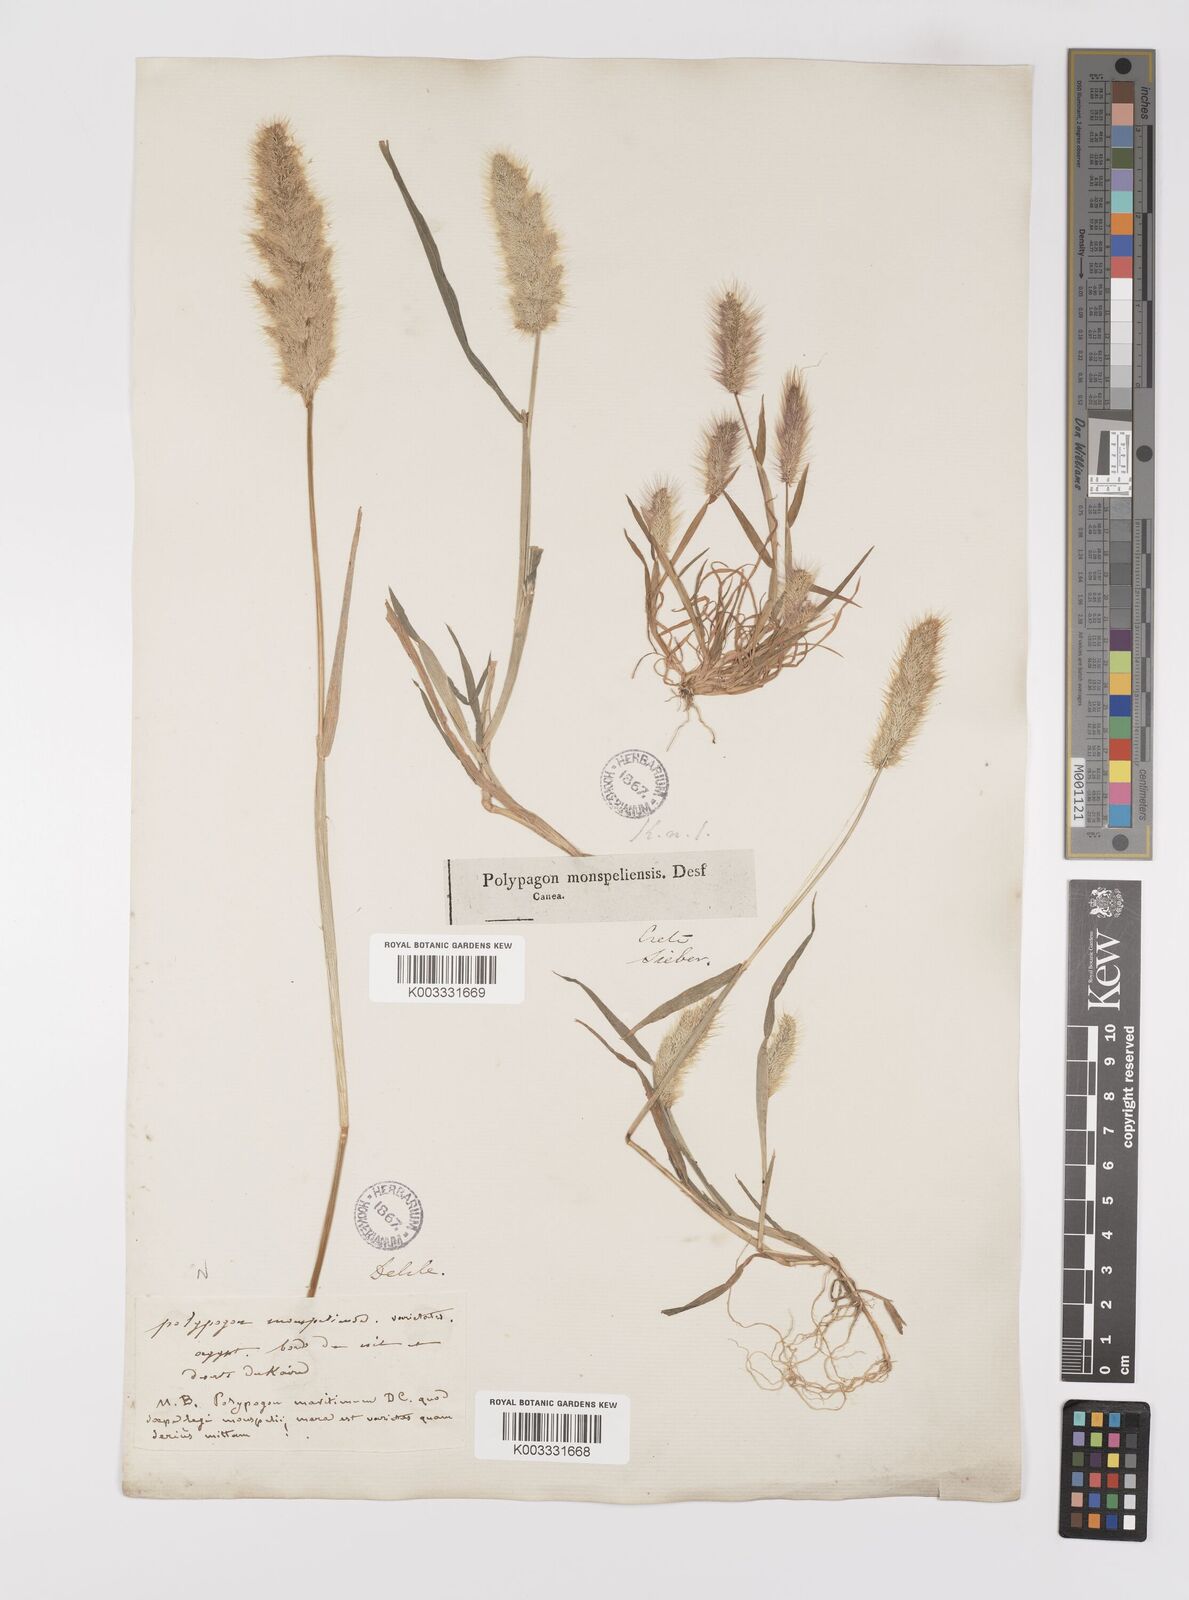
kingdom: Plantae
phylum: Tracheophyta
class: Liliopsida
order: Poales
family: Poaceae
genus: Polypogon
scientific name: Polypogon monspeliensis
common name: Annual rabbitsfoot grass
